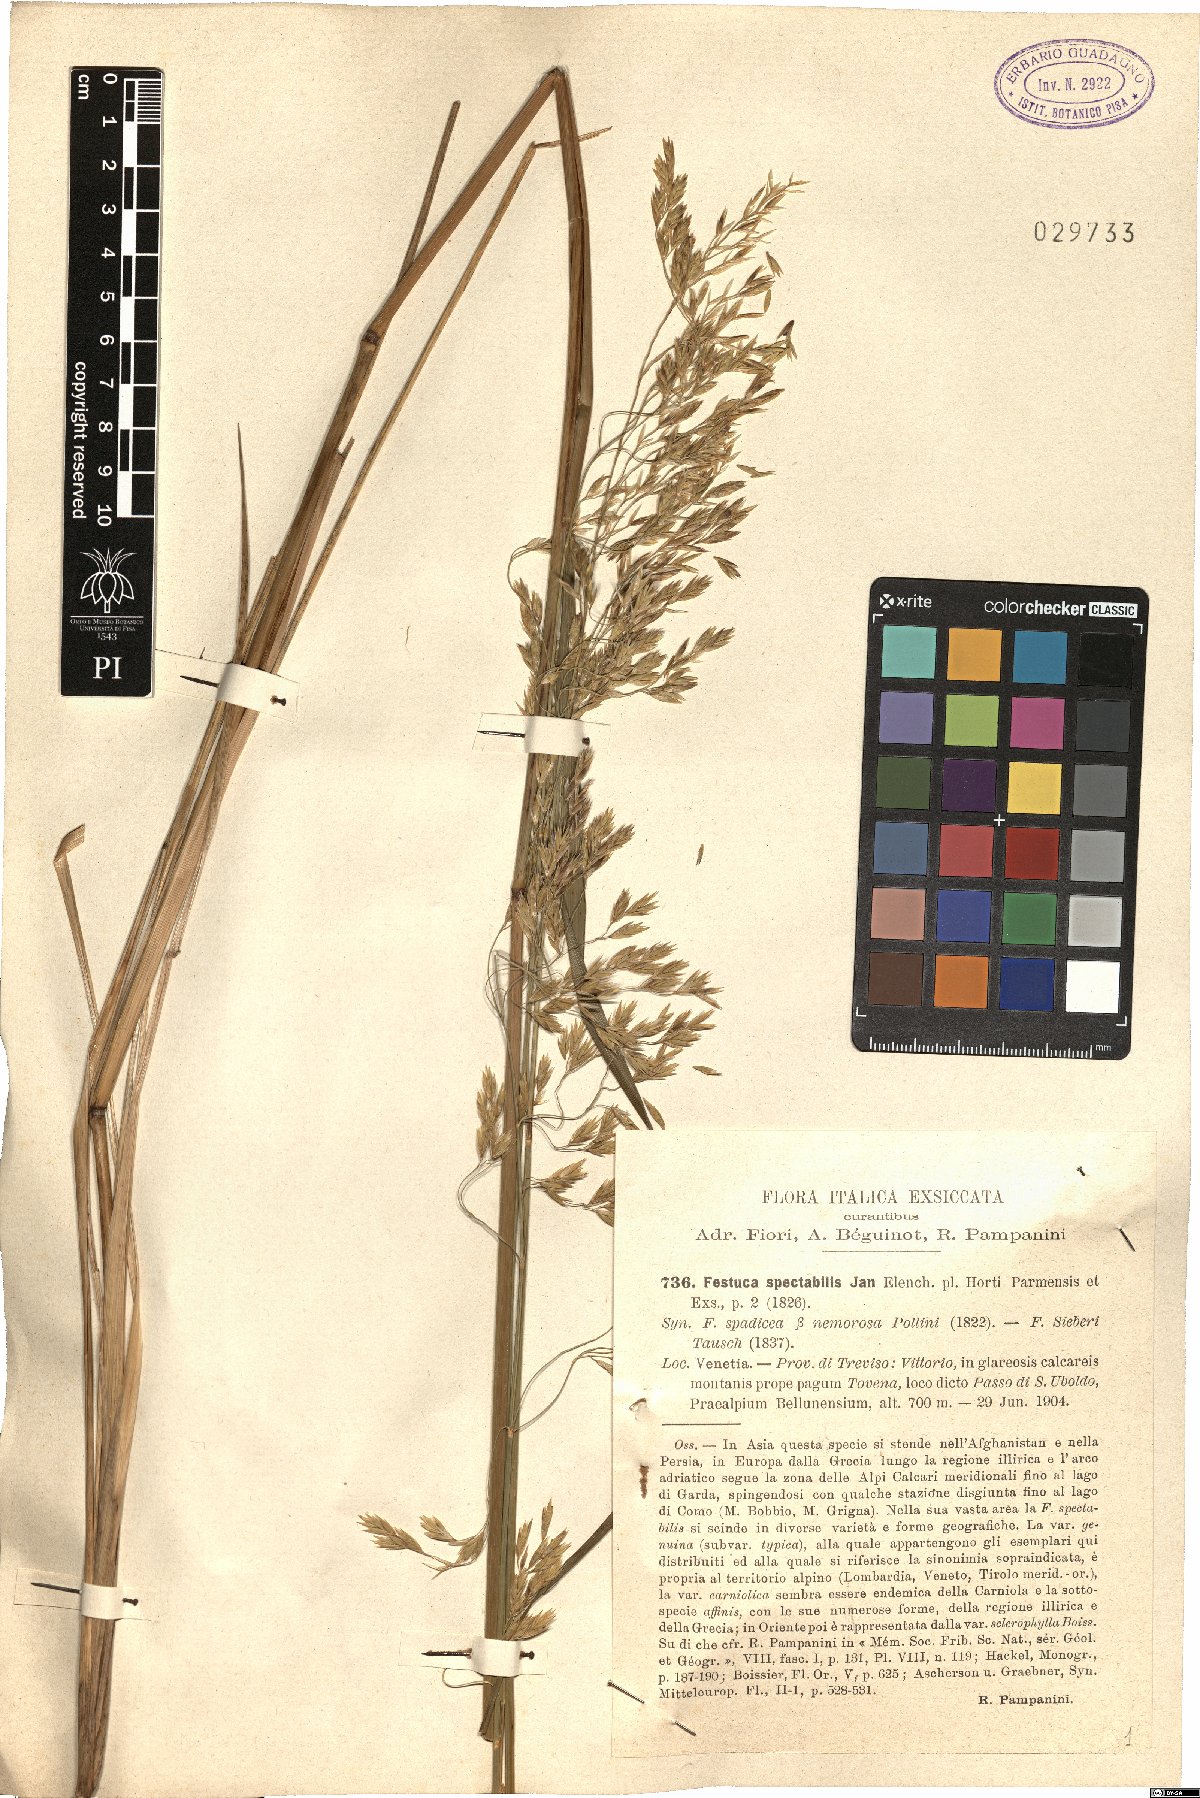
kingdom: Plantae
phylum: Tracheophyta
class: Liliopsida
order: Poales
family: Poaceae
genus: Festuca
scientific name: Festuca spectabilis
